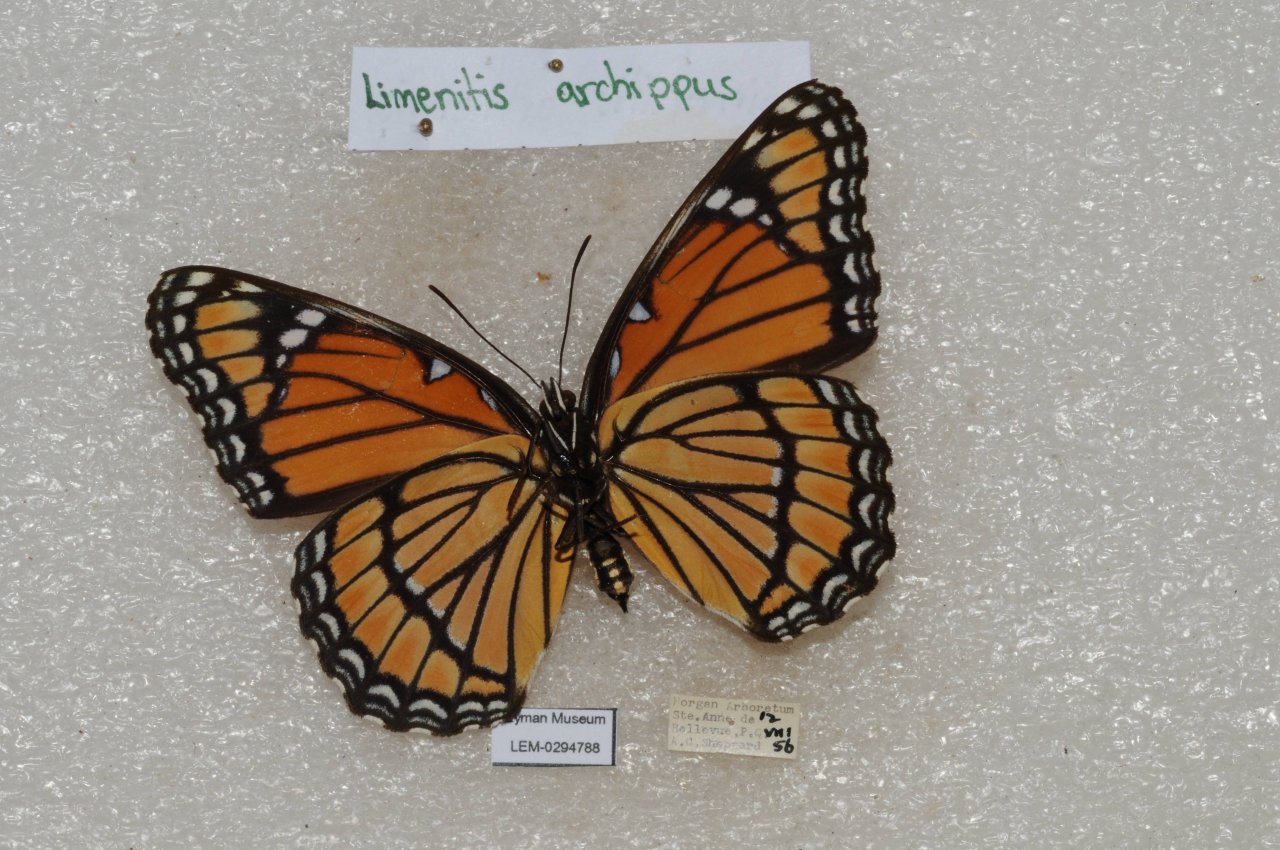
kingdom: Animalia
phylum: Arthropoda
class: Insecta
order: Lepidoptera
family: Nymphalidae
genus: Limenitis
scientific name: Limenitis archippus
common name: Viceroy
